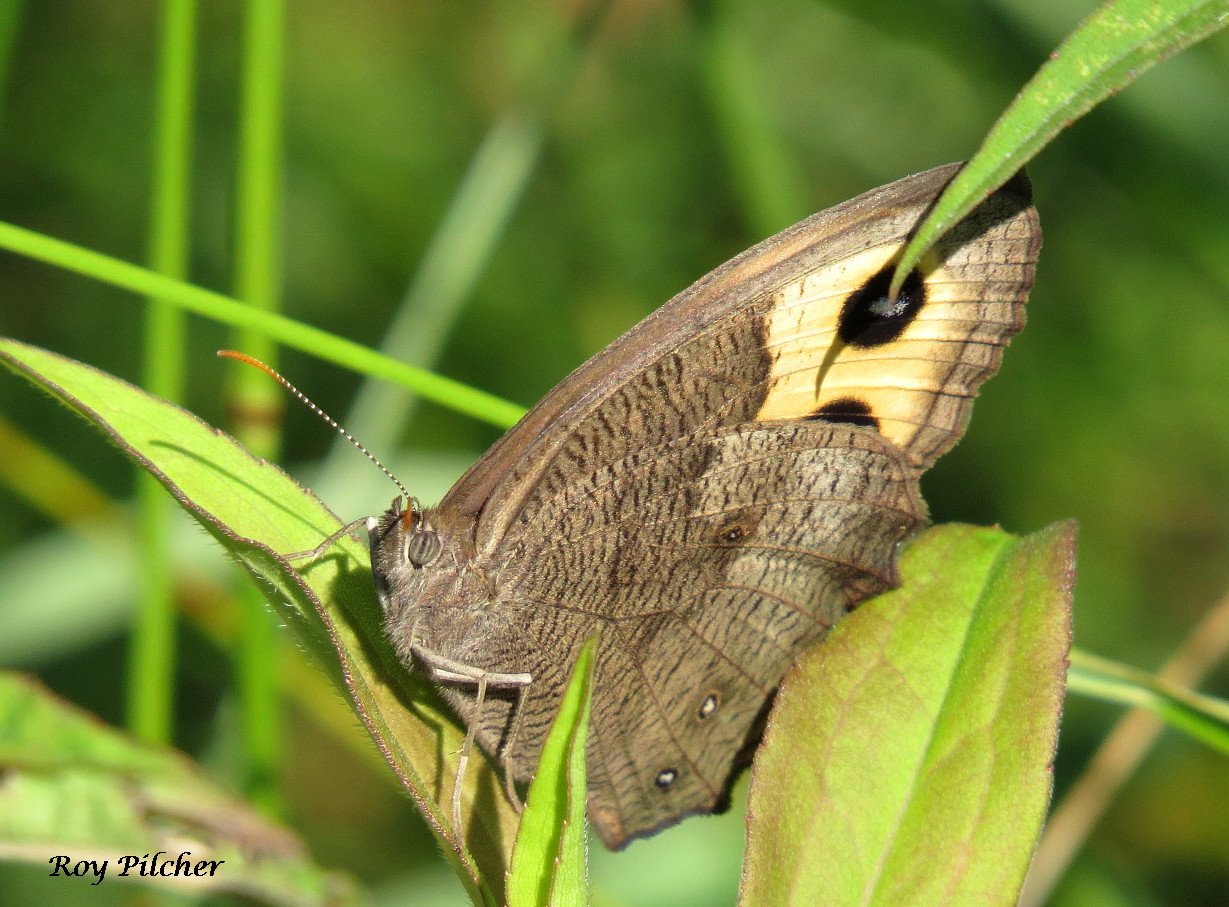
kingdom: Animalia
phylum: Arthropoda
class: Insecta
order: Lepidoptera
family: Nymphalidae
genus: Cercyonis
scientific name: Cercyonis pegala
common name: Common Wood-Nymph
